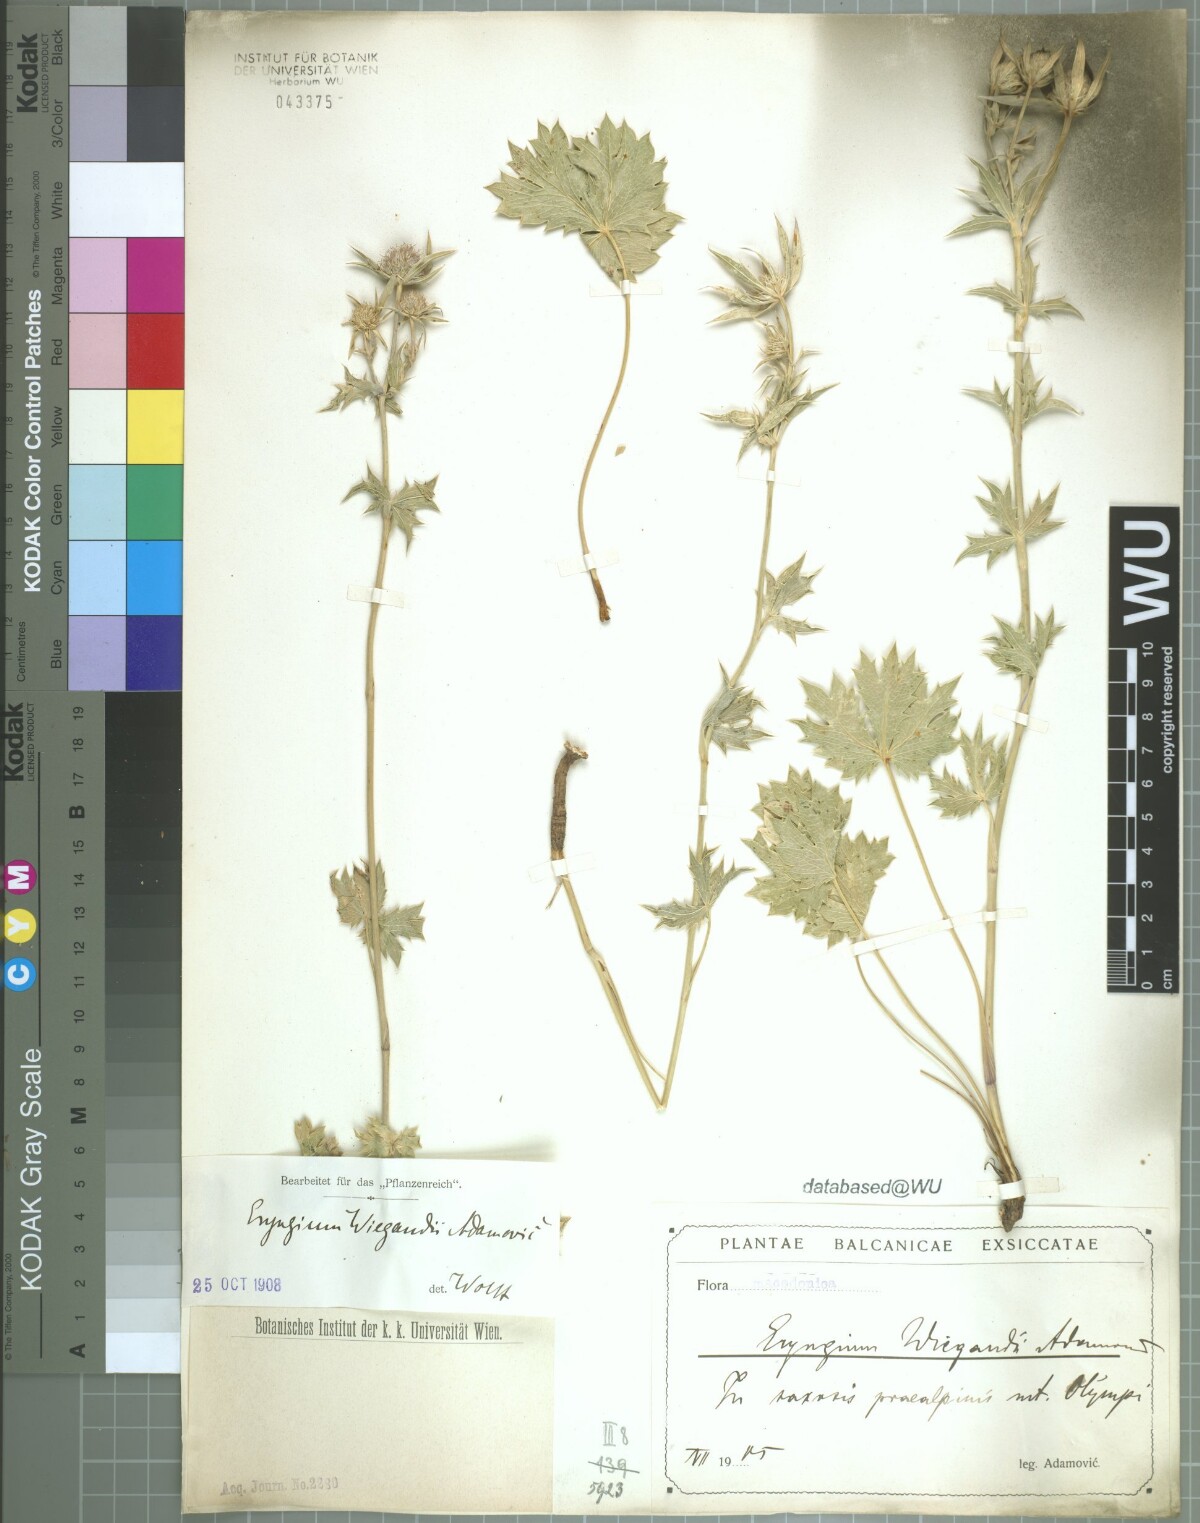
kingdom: Plantae
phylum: Tracheophyta
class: Magnoliopsida
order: Apiales
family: Apiaceae
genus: Eryngium
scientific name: Eryngium wiegandii
